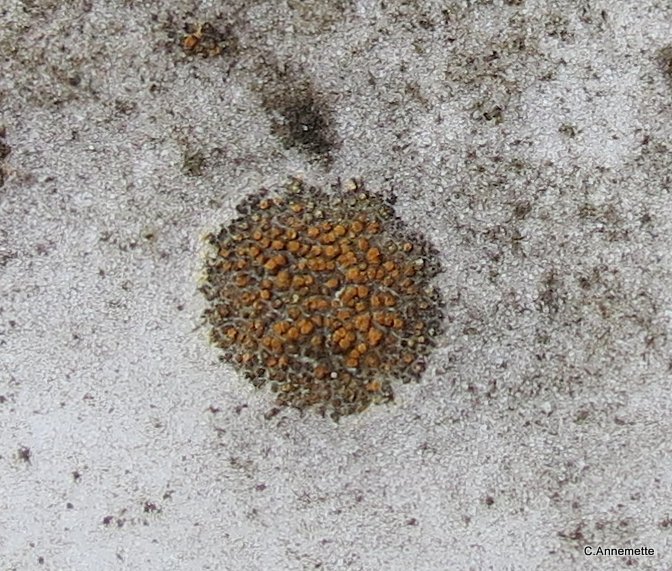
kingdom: Fungi
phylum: Ascomycota
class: Lecanoromycetes
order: Teloschistales
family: Teloschistaceae
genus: Athallia
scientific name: Athallia holocarpa
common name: liden orangelav
